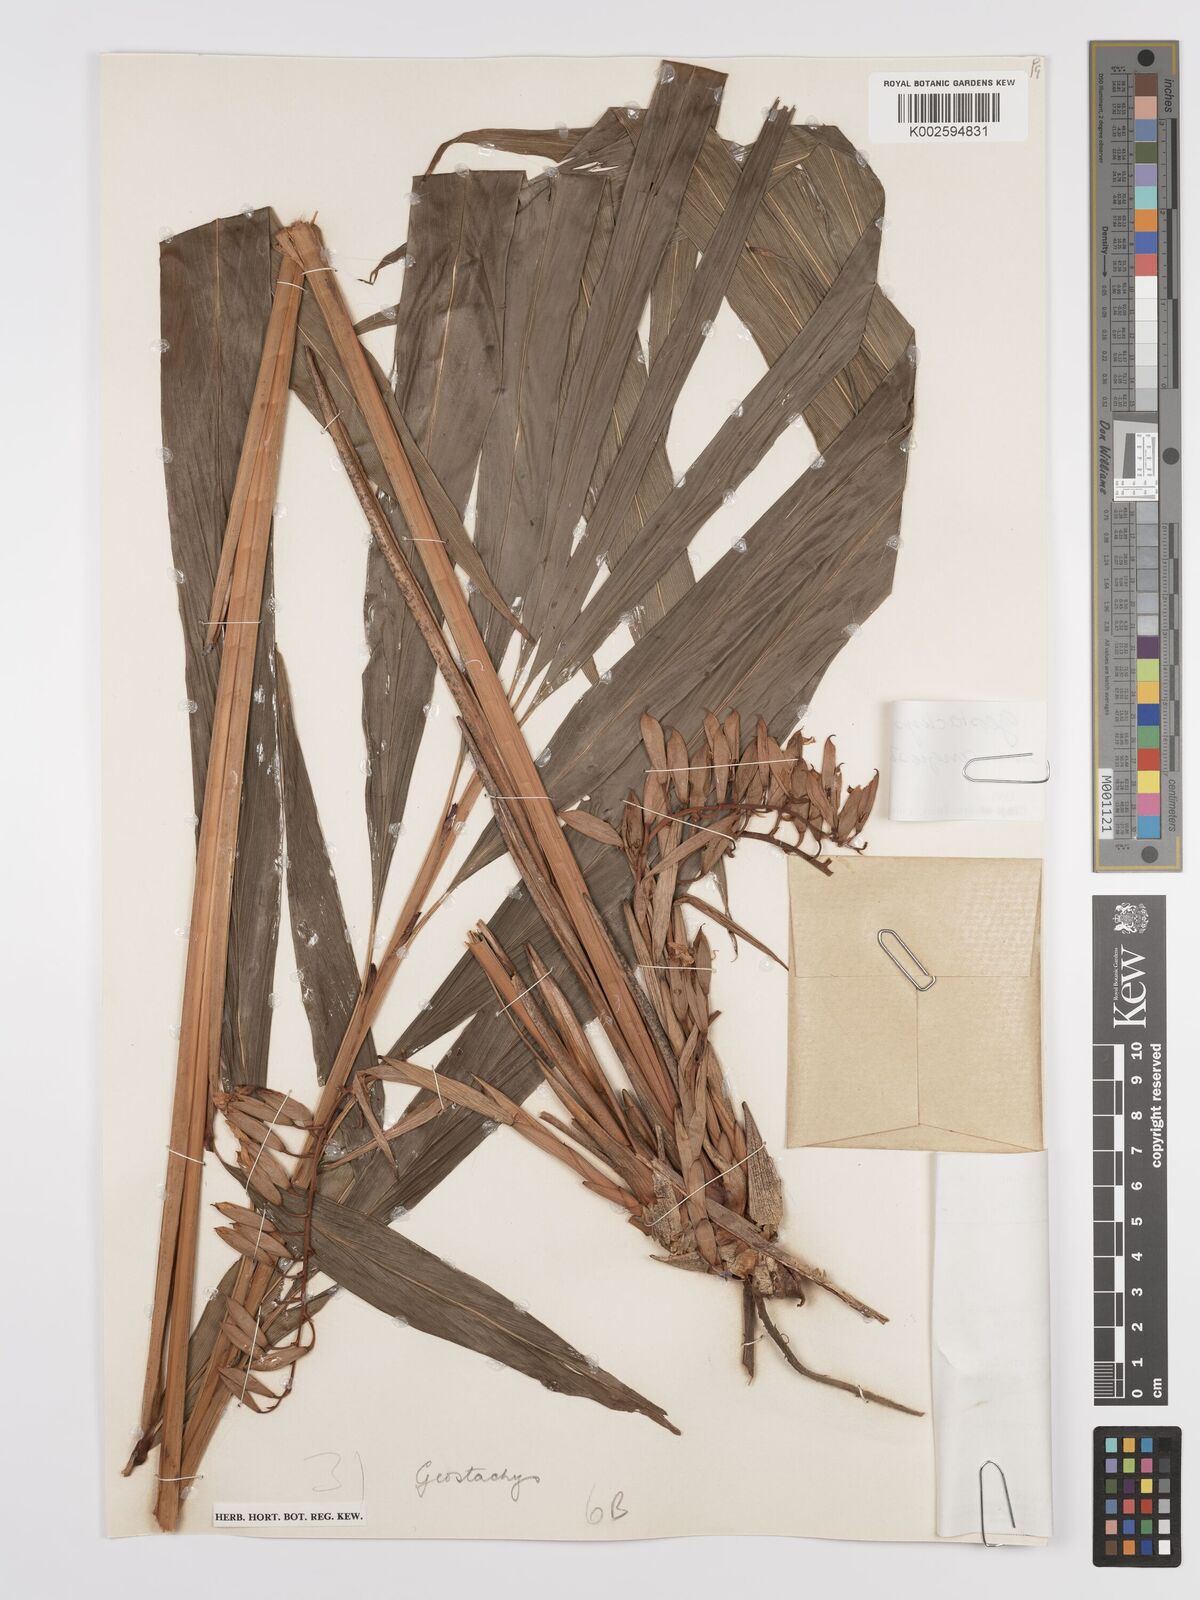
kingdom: Plantae
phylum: Tracheophyta
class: Liliopsida
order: Zingiberales
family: Zingiberaceae
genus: Geostachys
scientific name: Geostachys angustifolia
